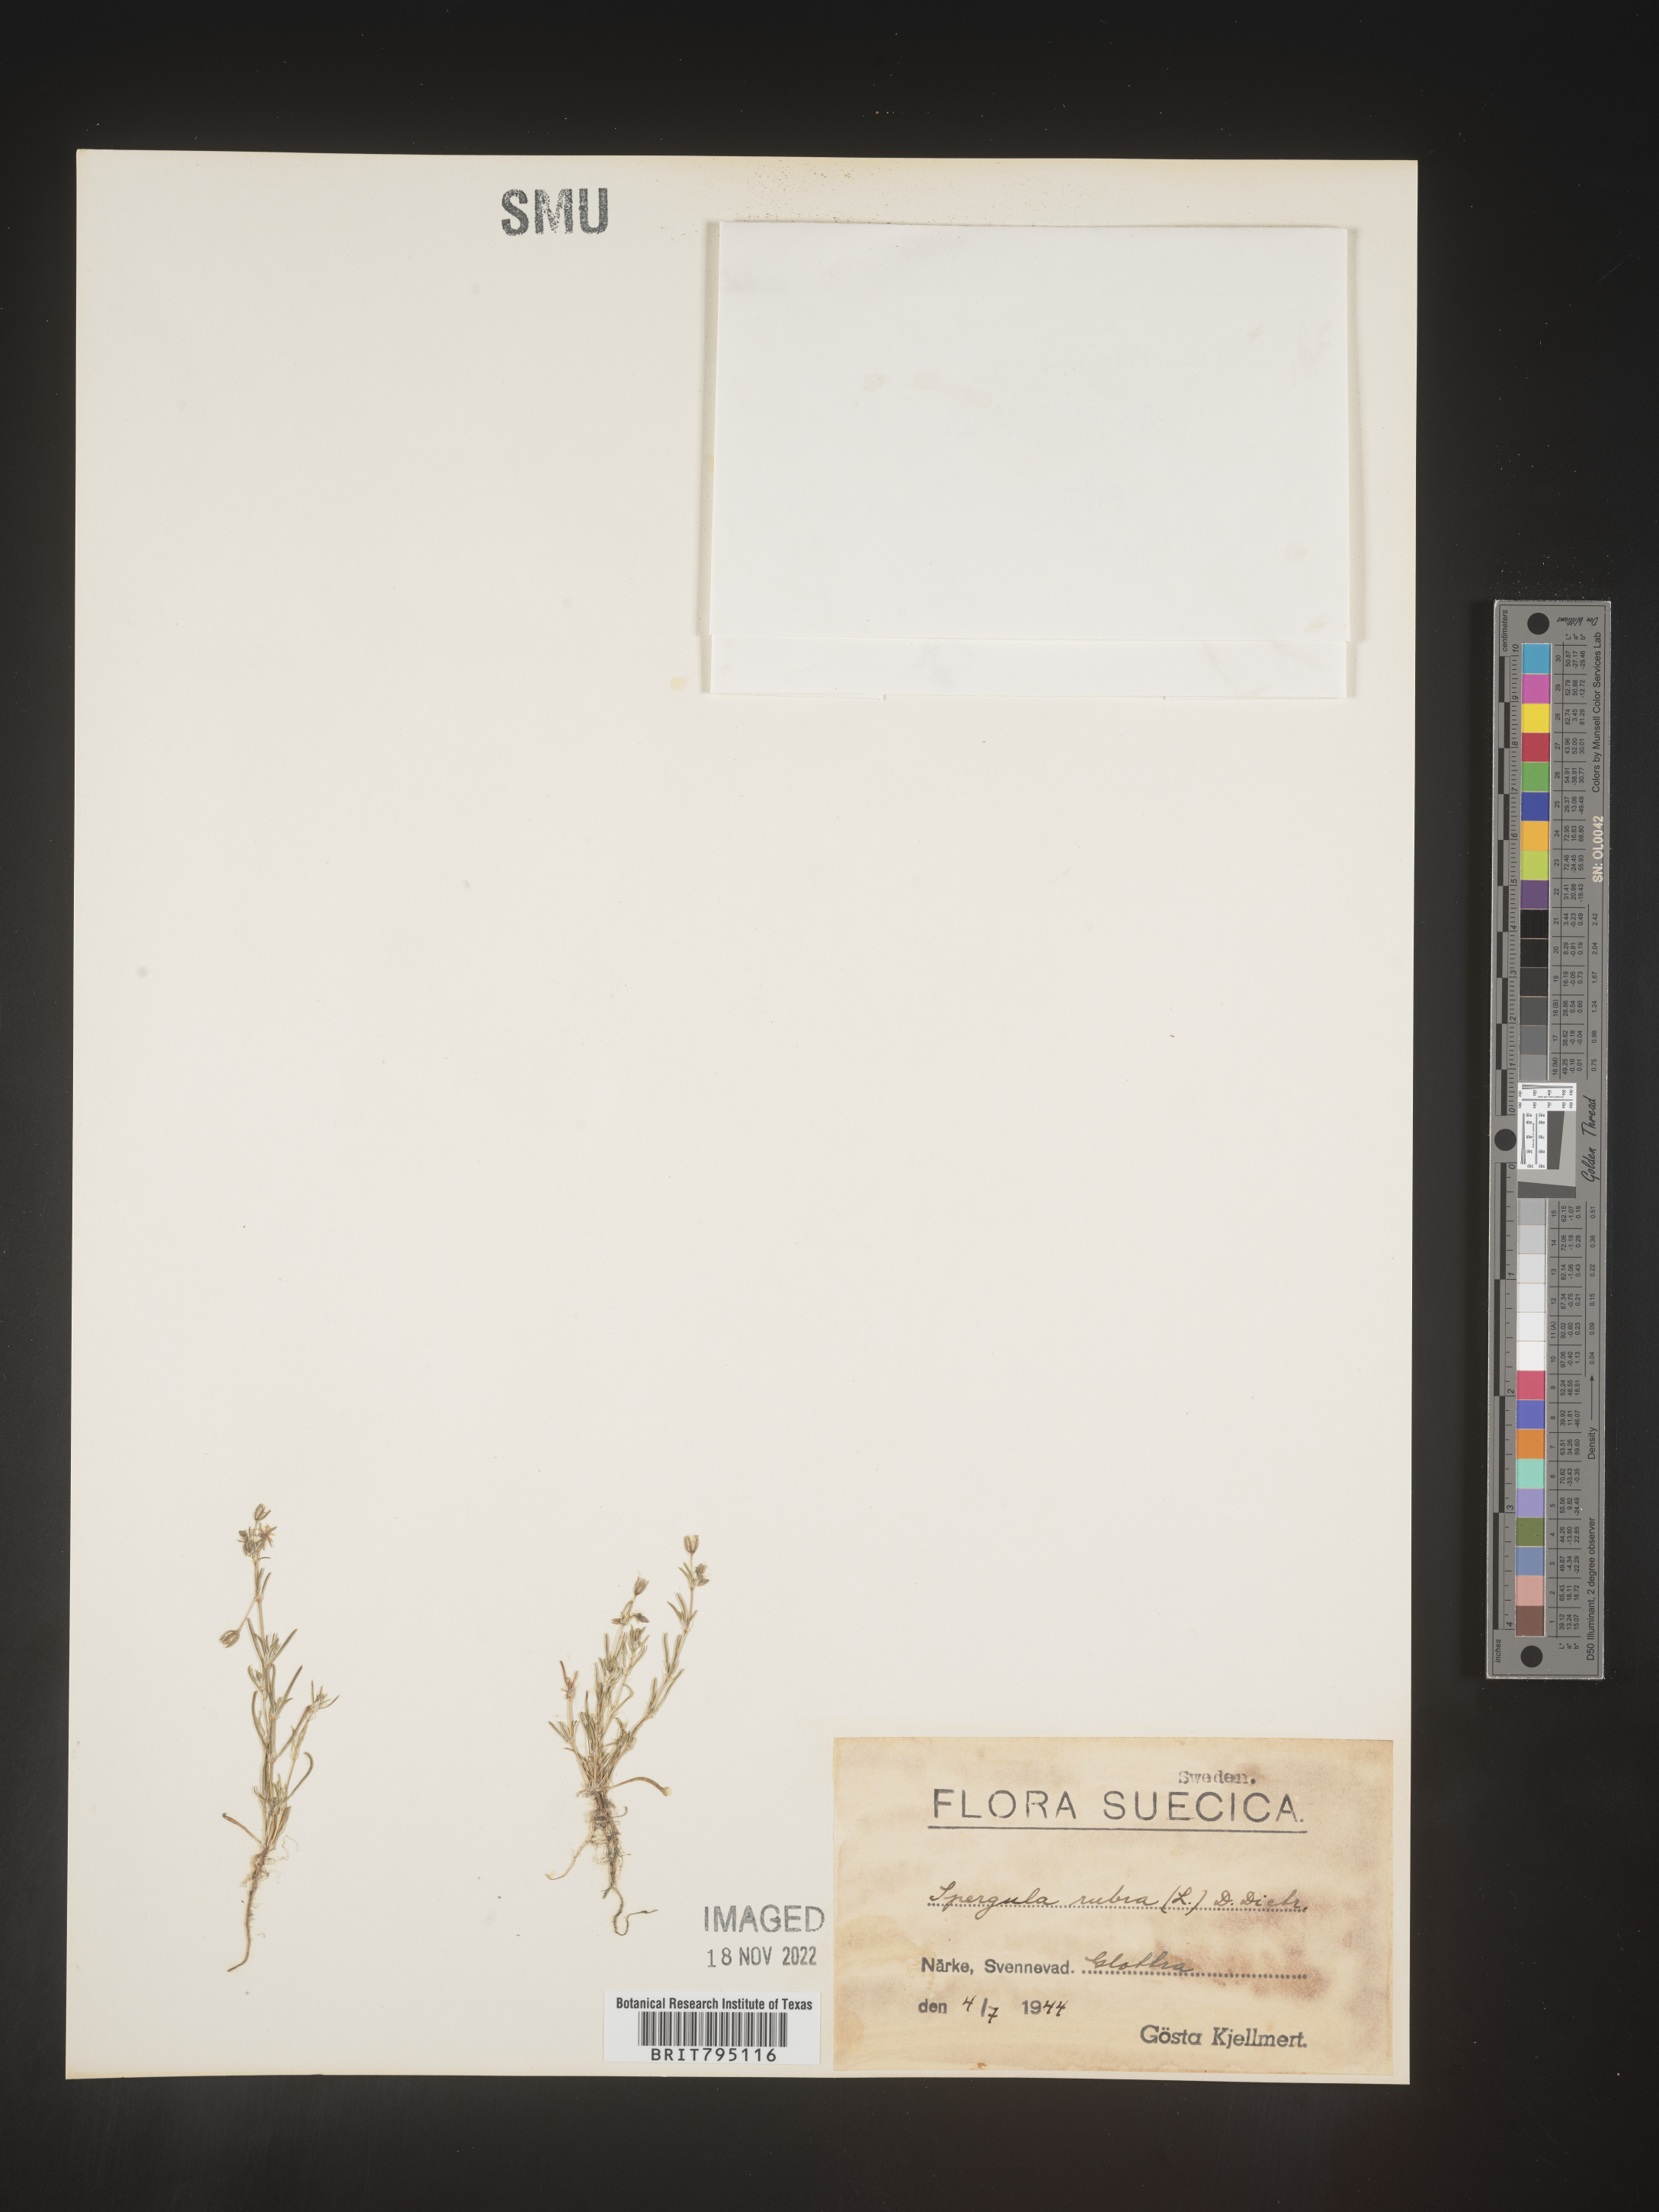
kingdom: Plantae
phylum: Tracheophyta
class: Magnoliopsida
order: Caryophyllales
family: Caryophyllaceae
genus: Spergula
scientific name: Spergula rubra
